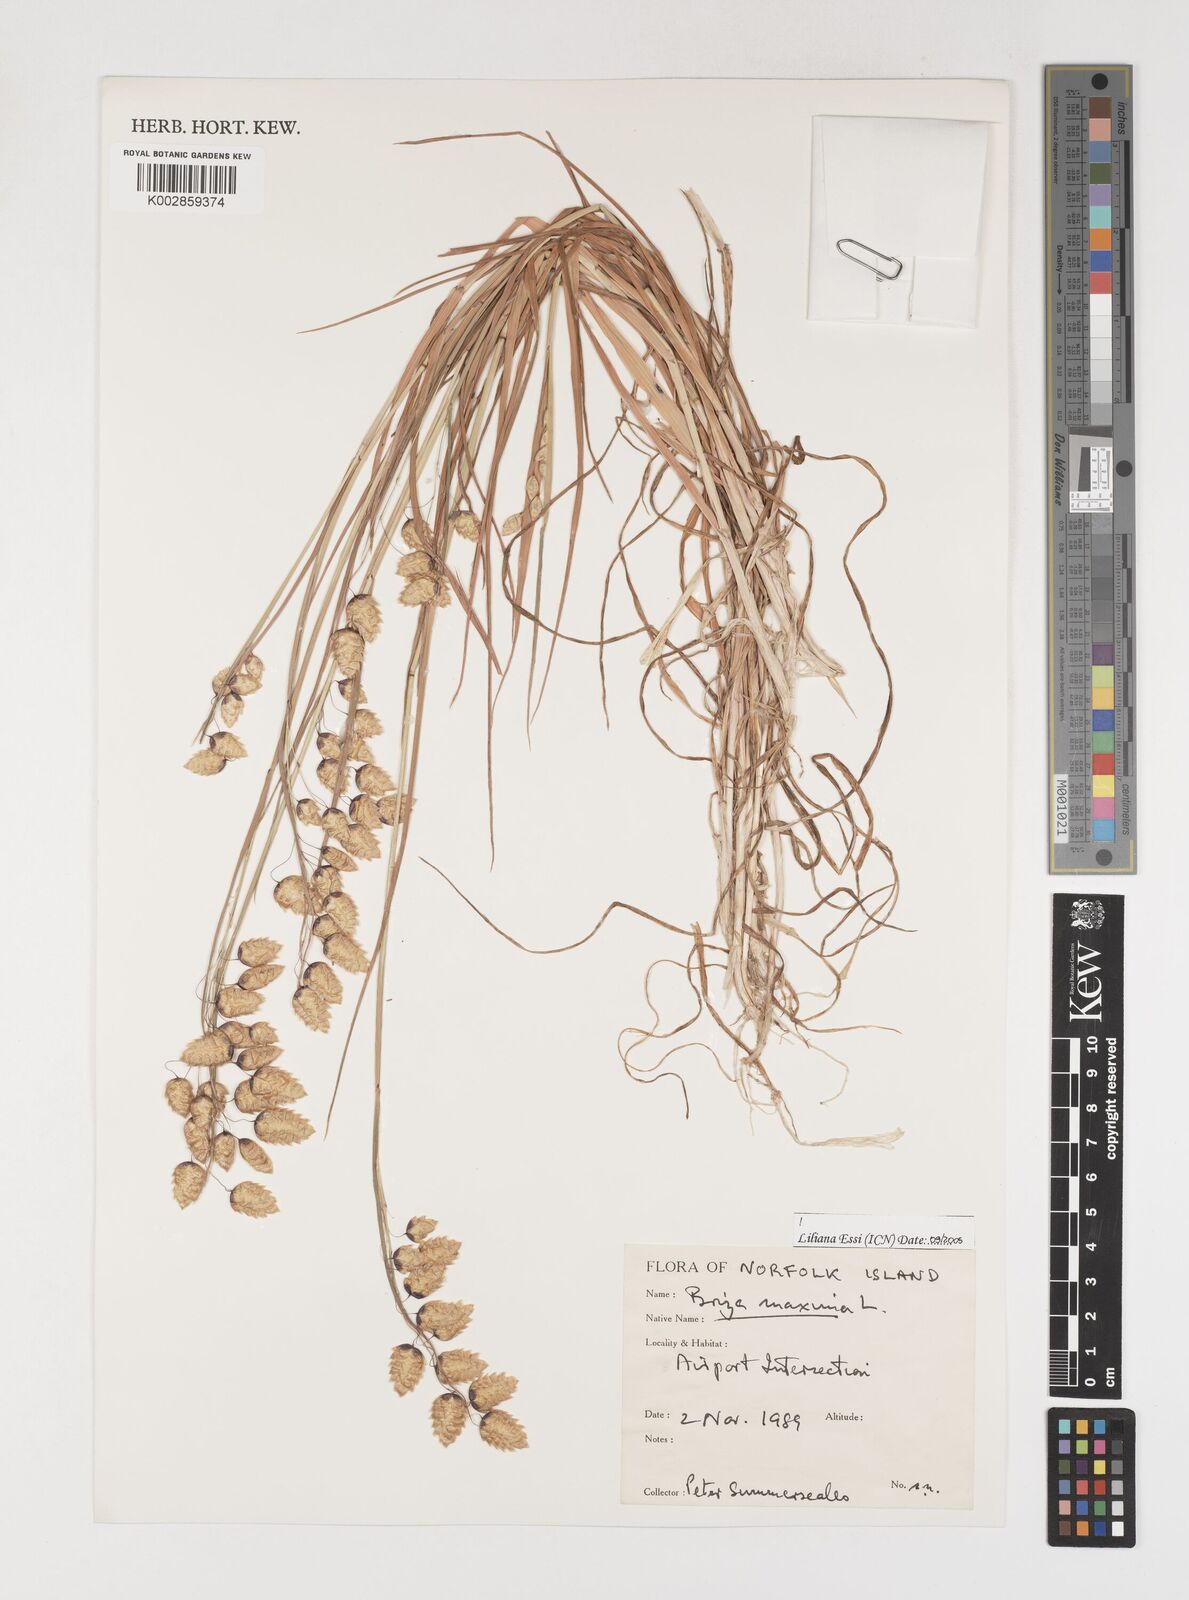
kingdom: Plantae
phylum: Tracheophyta
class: Liliopsida
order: Poales
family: Poaceae
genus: Briza
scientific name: Briza maxima
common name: Big quakinggrass
